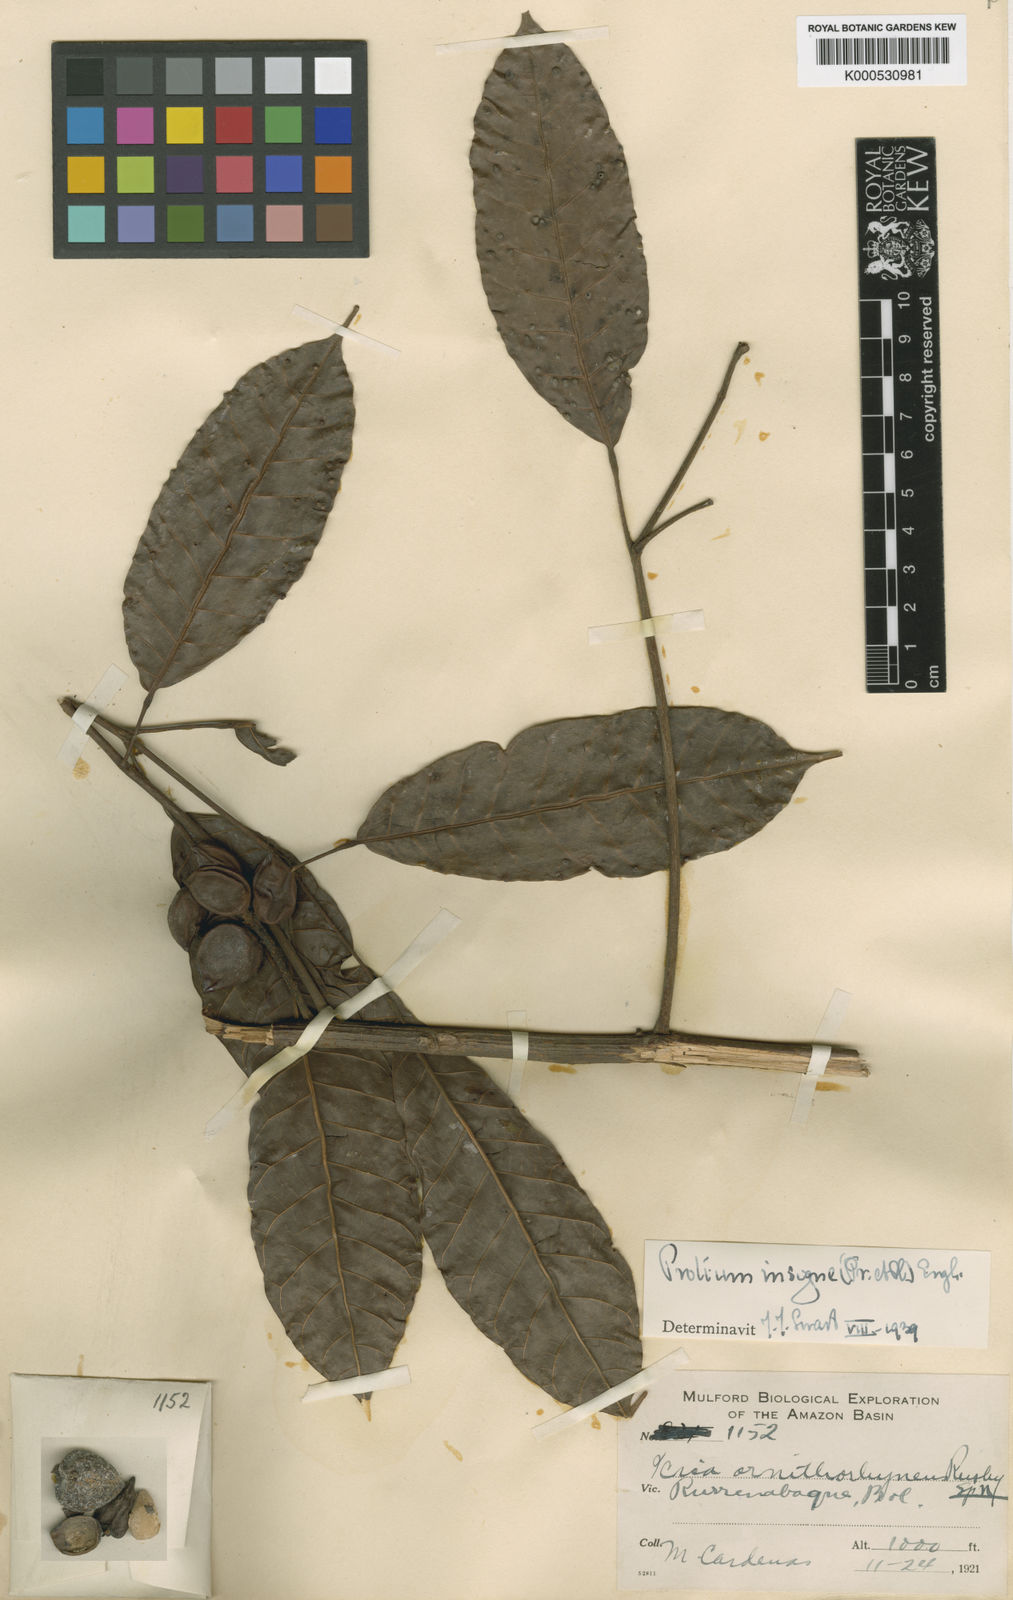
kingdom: Plantae
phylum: Tracheophyta
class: Magnoliopsida
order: Sapindales
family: Burseraceae
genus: Protium
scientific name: Protium sagotianum
